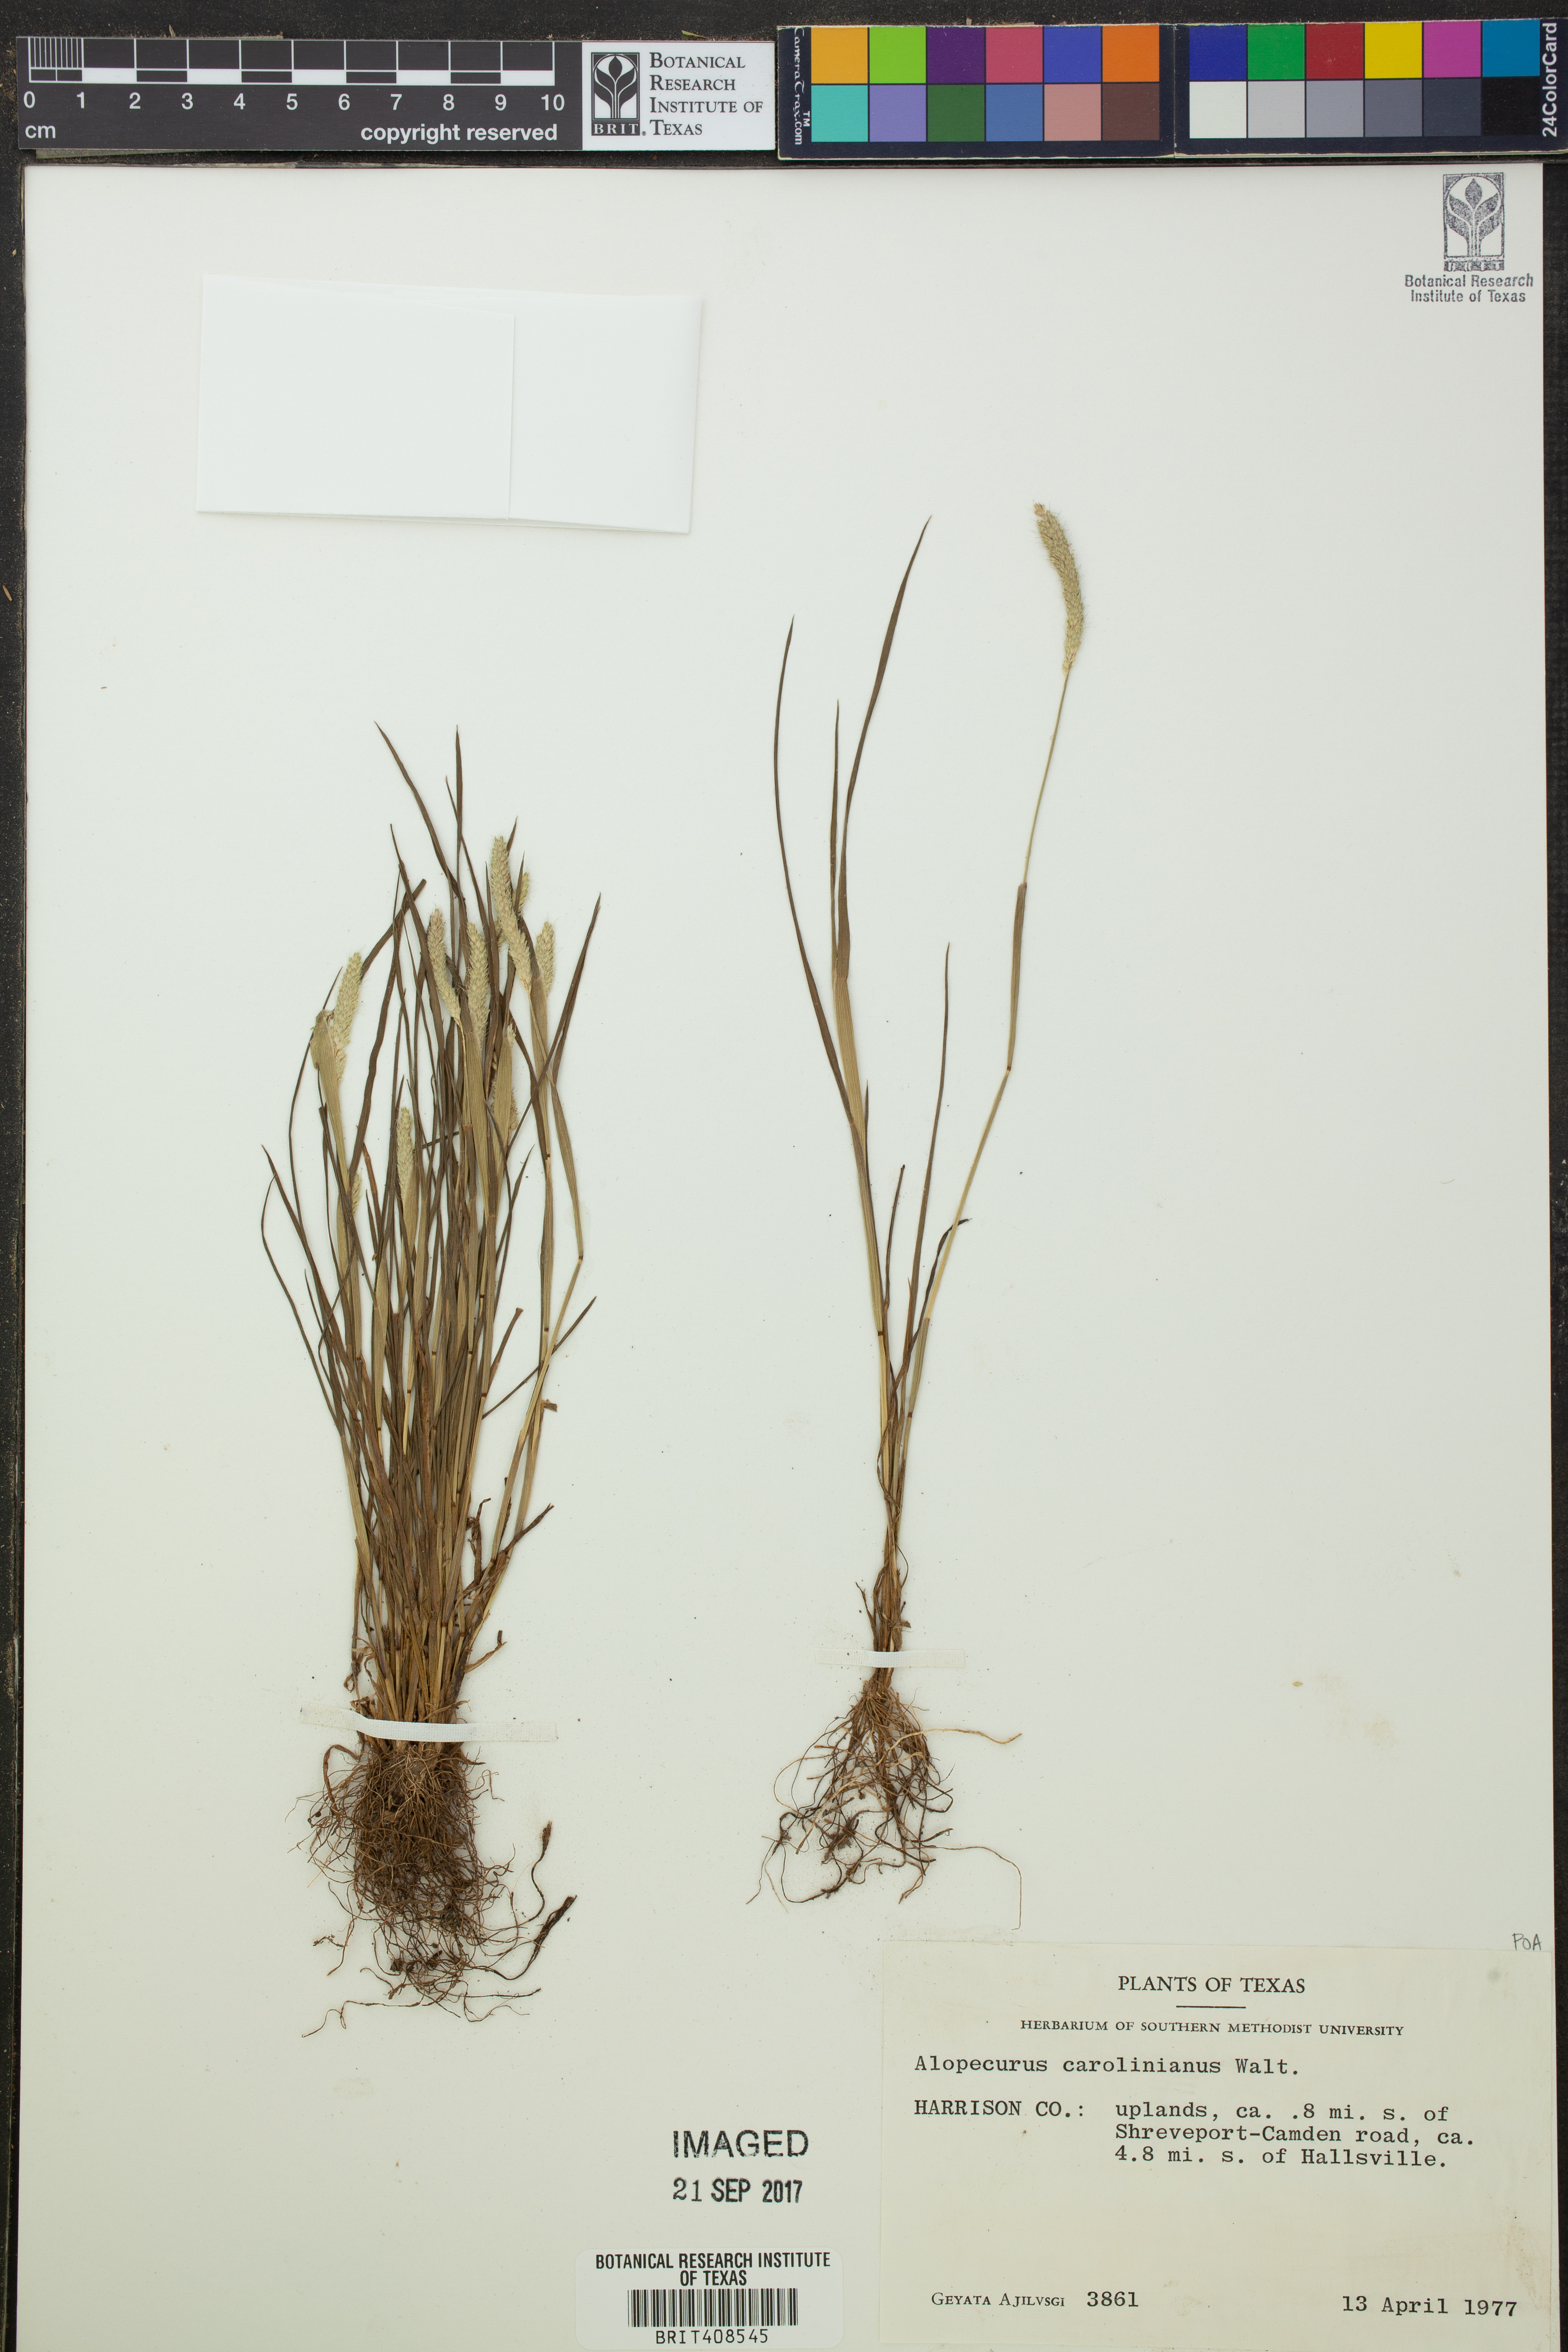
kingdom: Plantae
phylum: Tracheophyta
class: Liliopsida
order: Poales
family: Poaceae
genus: Alopecurus
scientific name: Alopecurus carolinianus
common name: Tufted foxtail
